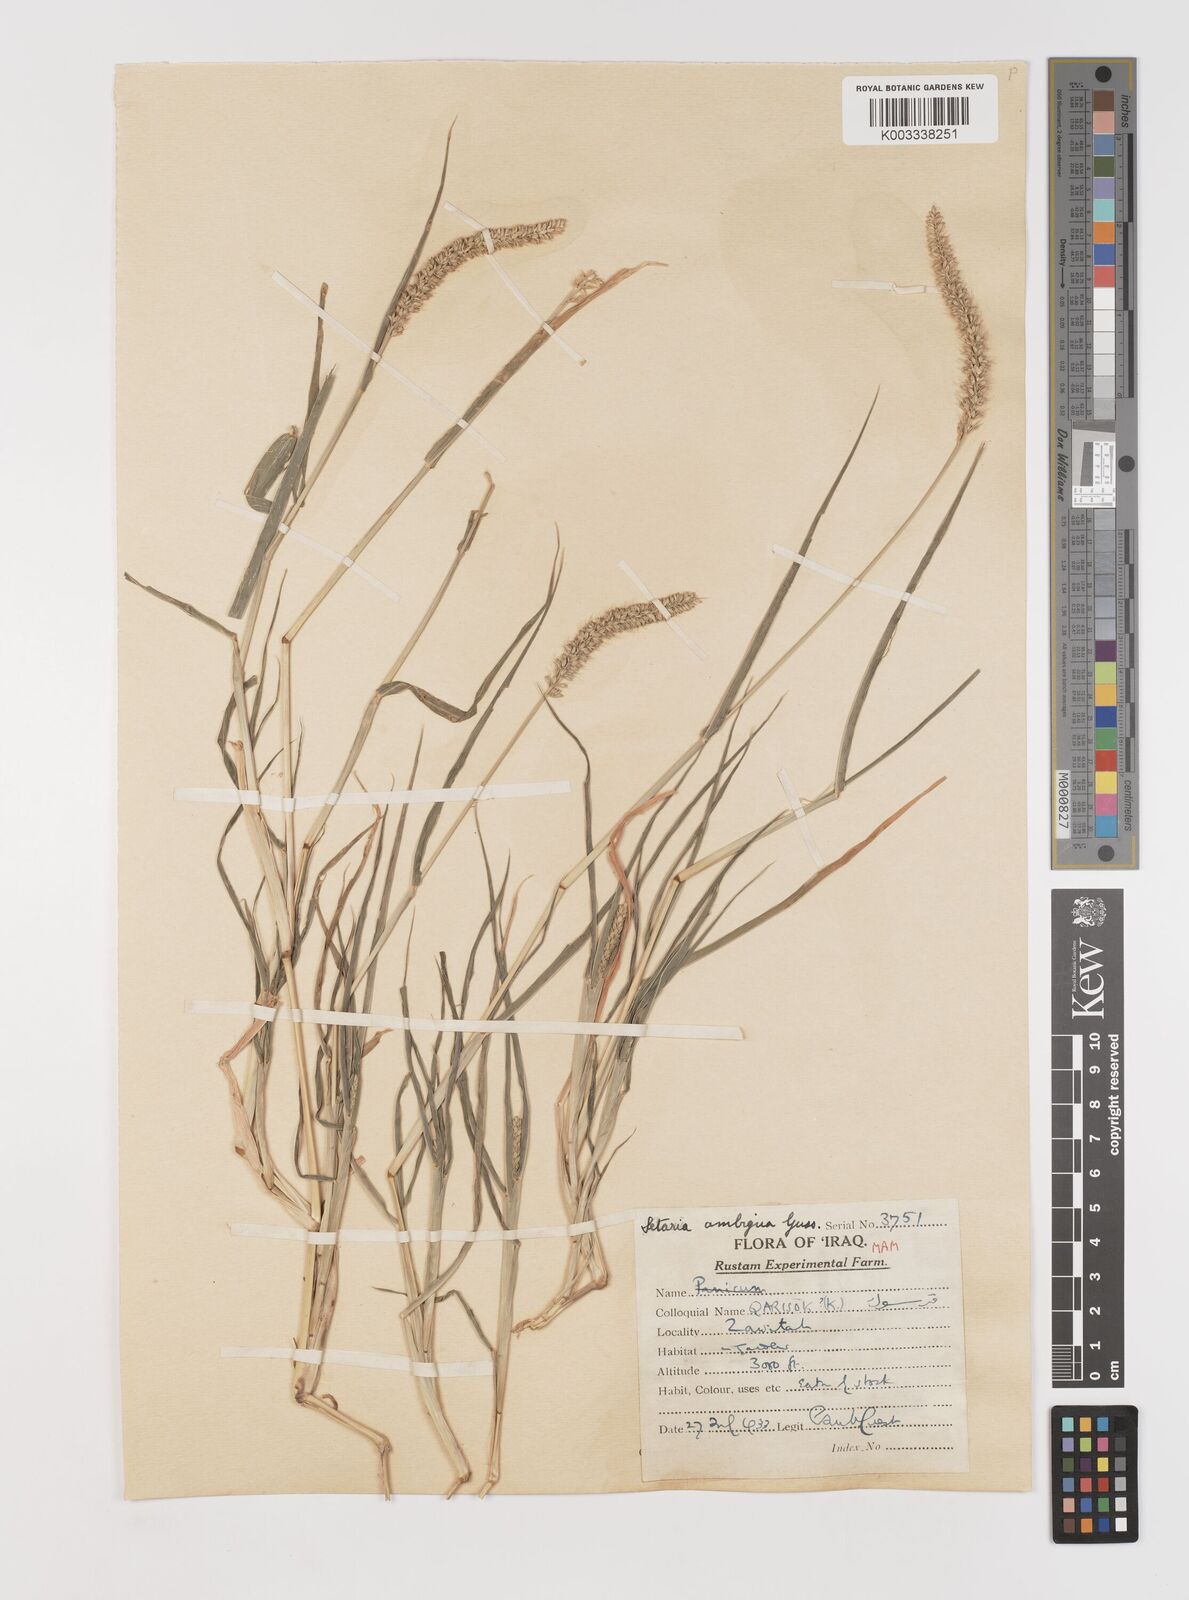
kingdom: Plantae
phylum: Tracheophyta
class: Liliopsida
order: Poales
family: Poaceae
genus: Setaria
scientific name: Setaria verticillata
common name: Hooked bristlegrass
